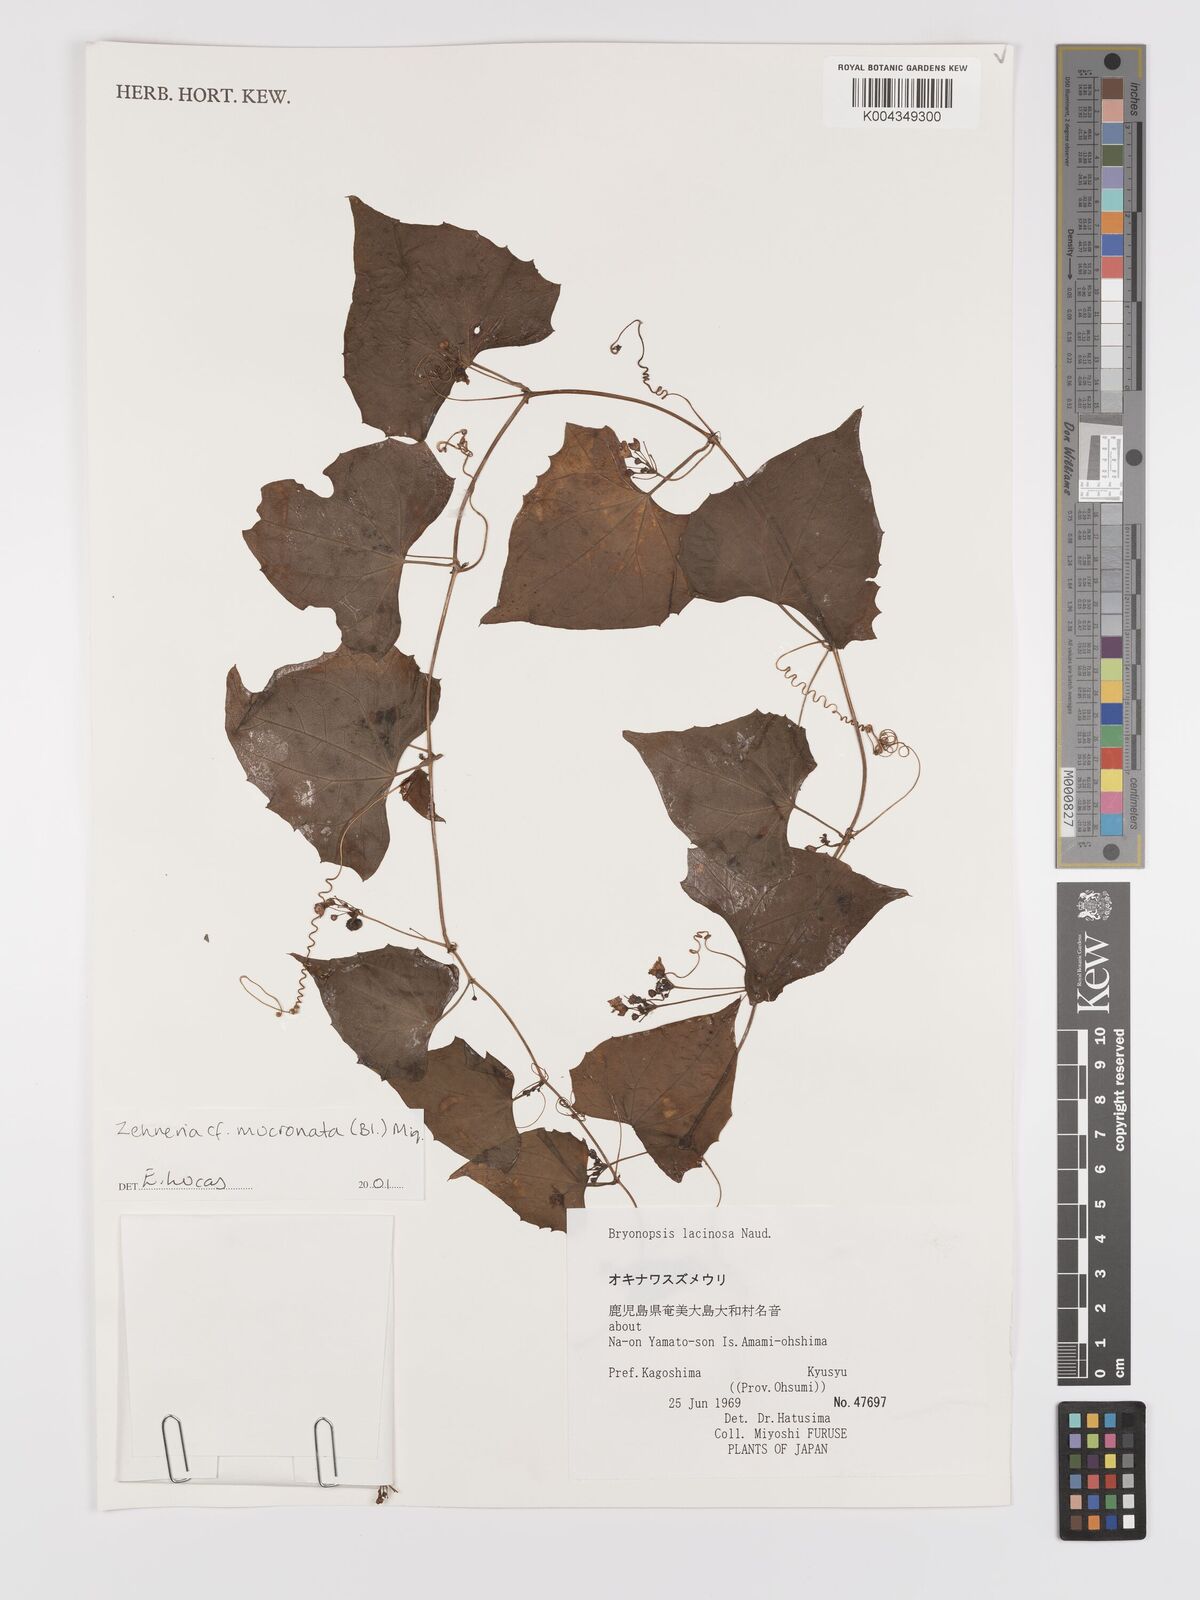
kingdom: Plantae
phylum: Tracheophyta
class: Magnoliopsida
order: Cucurbitales
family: Cucurbitaceae
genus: Zehneria
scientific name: Zehneria mucronata
